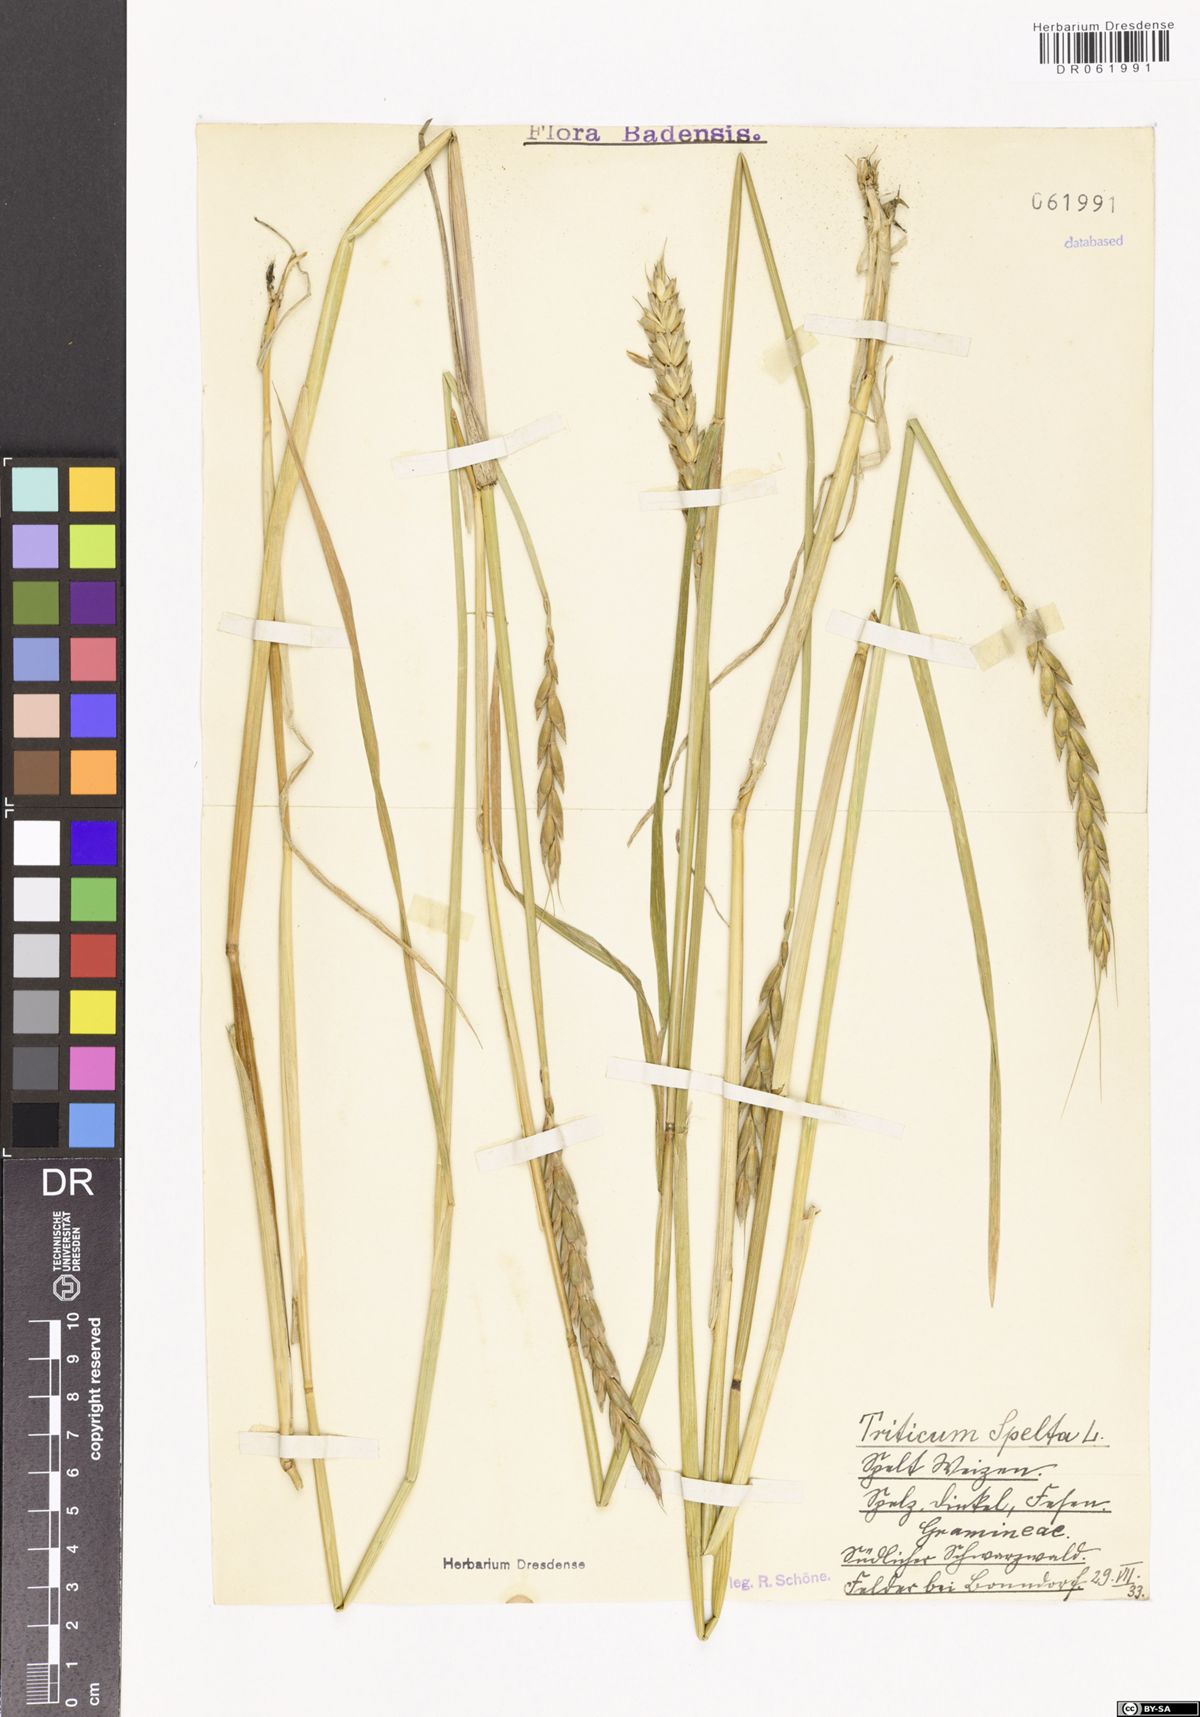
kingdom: Plantae
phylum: Tracheophyta
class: Liliopsida
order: Poales
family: Poaceae
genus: Triticum
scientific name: Triticum aestivum
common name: Common wheat
